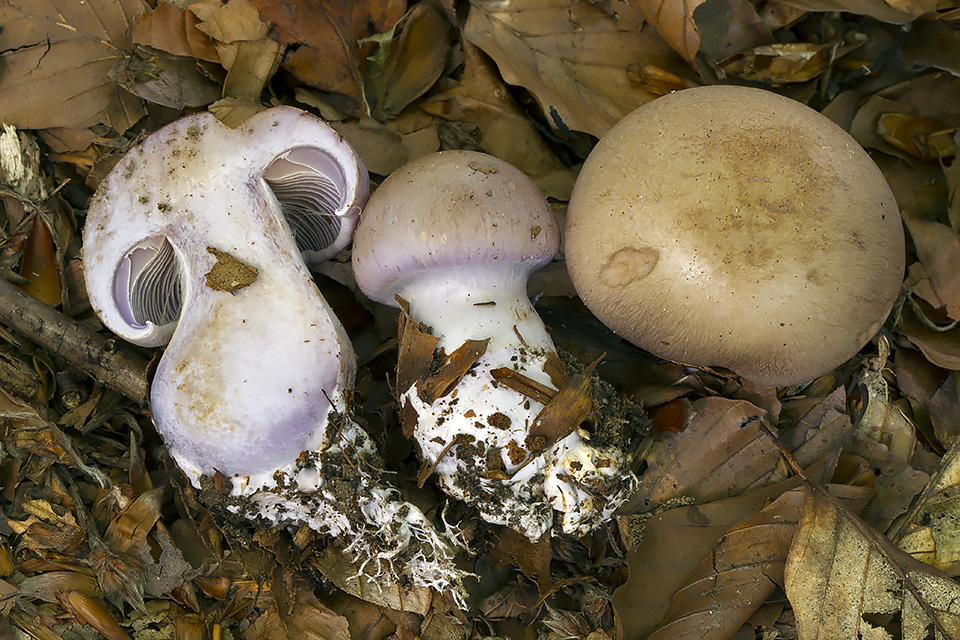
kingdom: Fungi
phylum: Basidiomycota
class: Agaricomycetes
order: Agaricales
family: Cortinariaceae
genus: Cortinarius
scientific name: Cortinarius largus
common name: violetrandet slørhat
